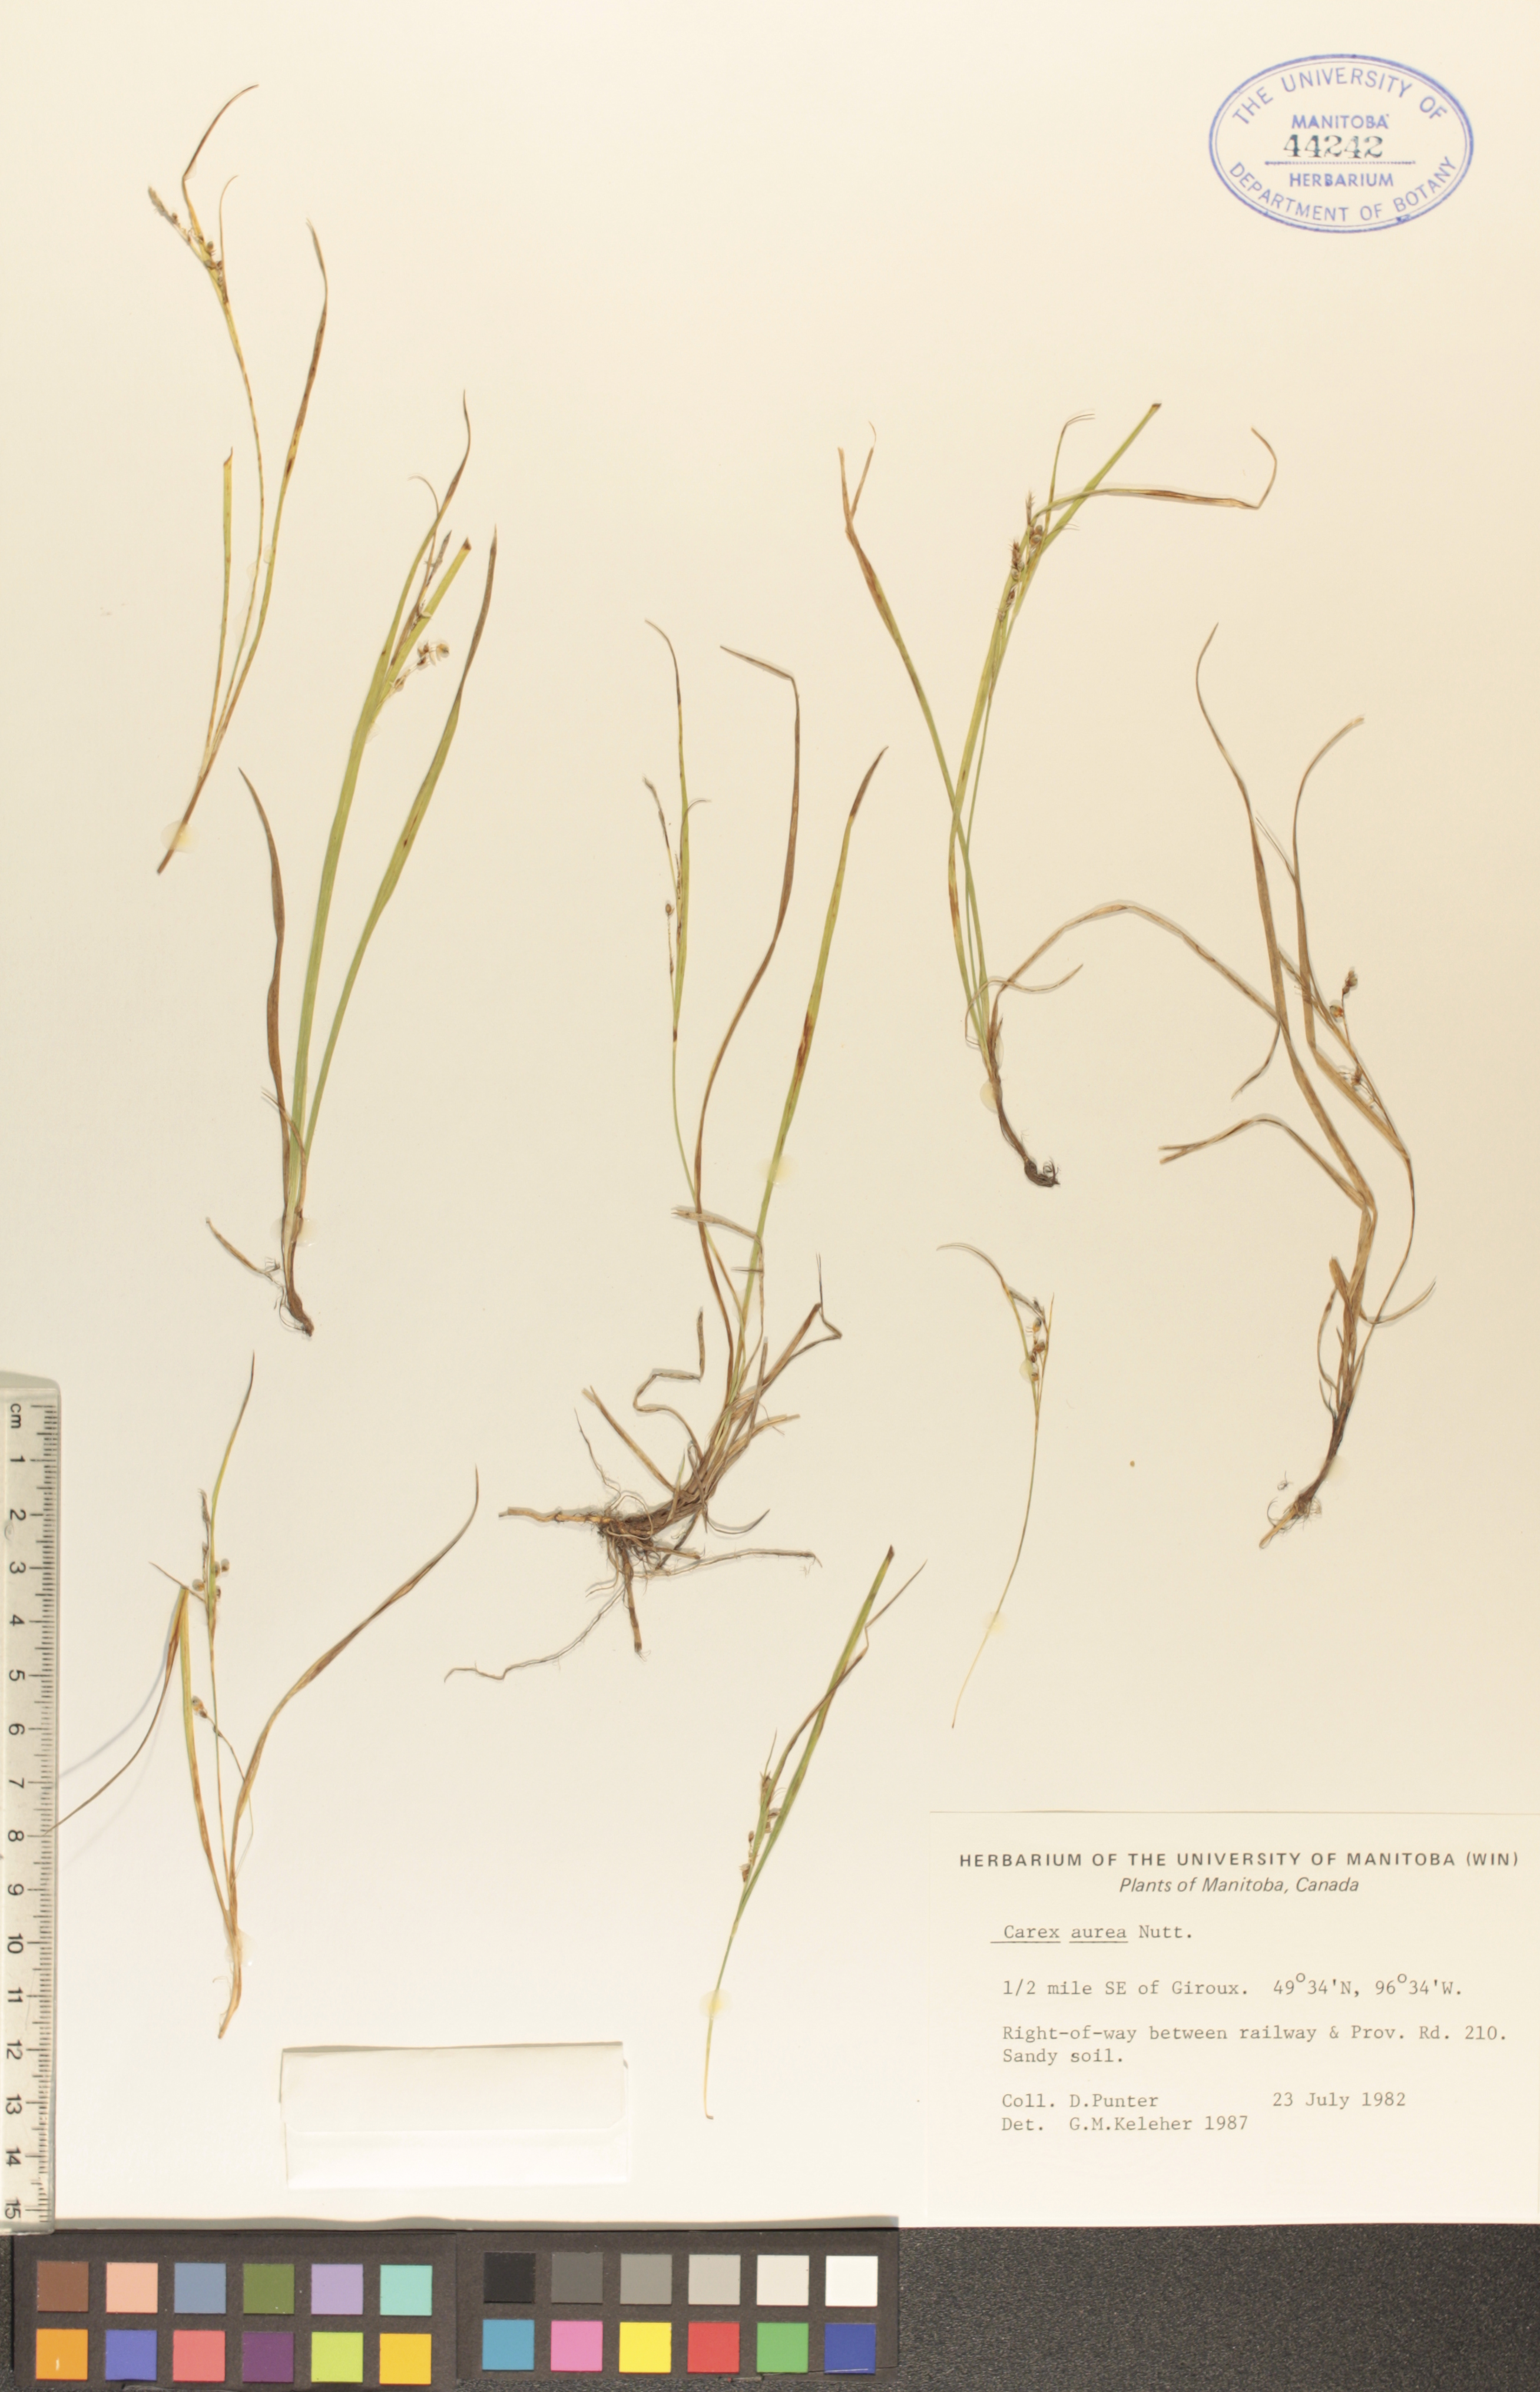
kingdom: Plantae
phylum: Tracheophyta
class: Liliopsida
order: Poales
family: Cyperaceae
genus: Carex
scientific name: Carex aurea
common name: Golden sedge
